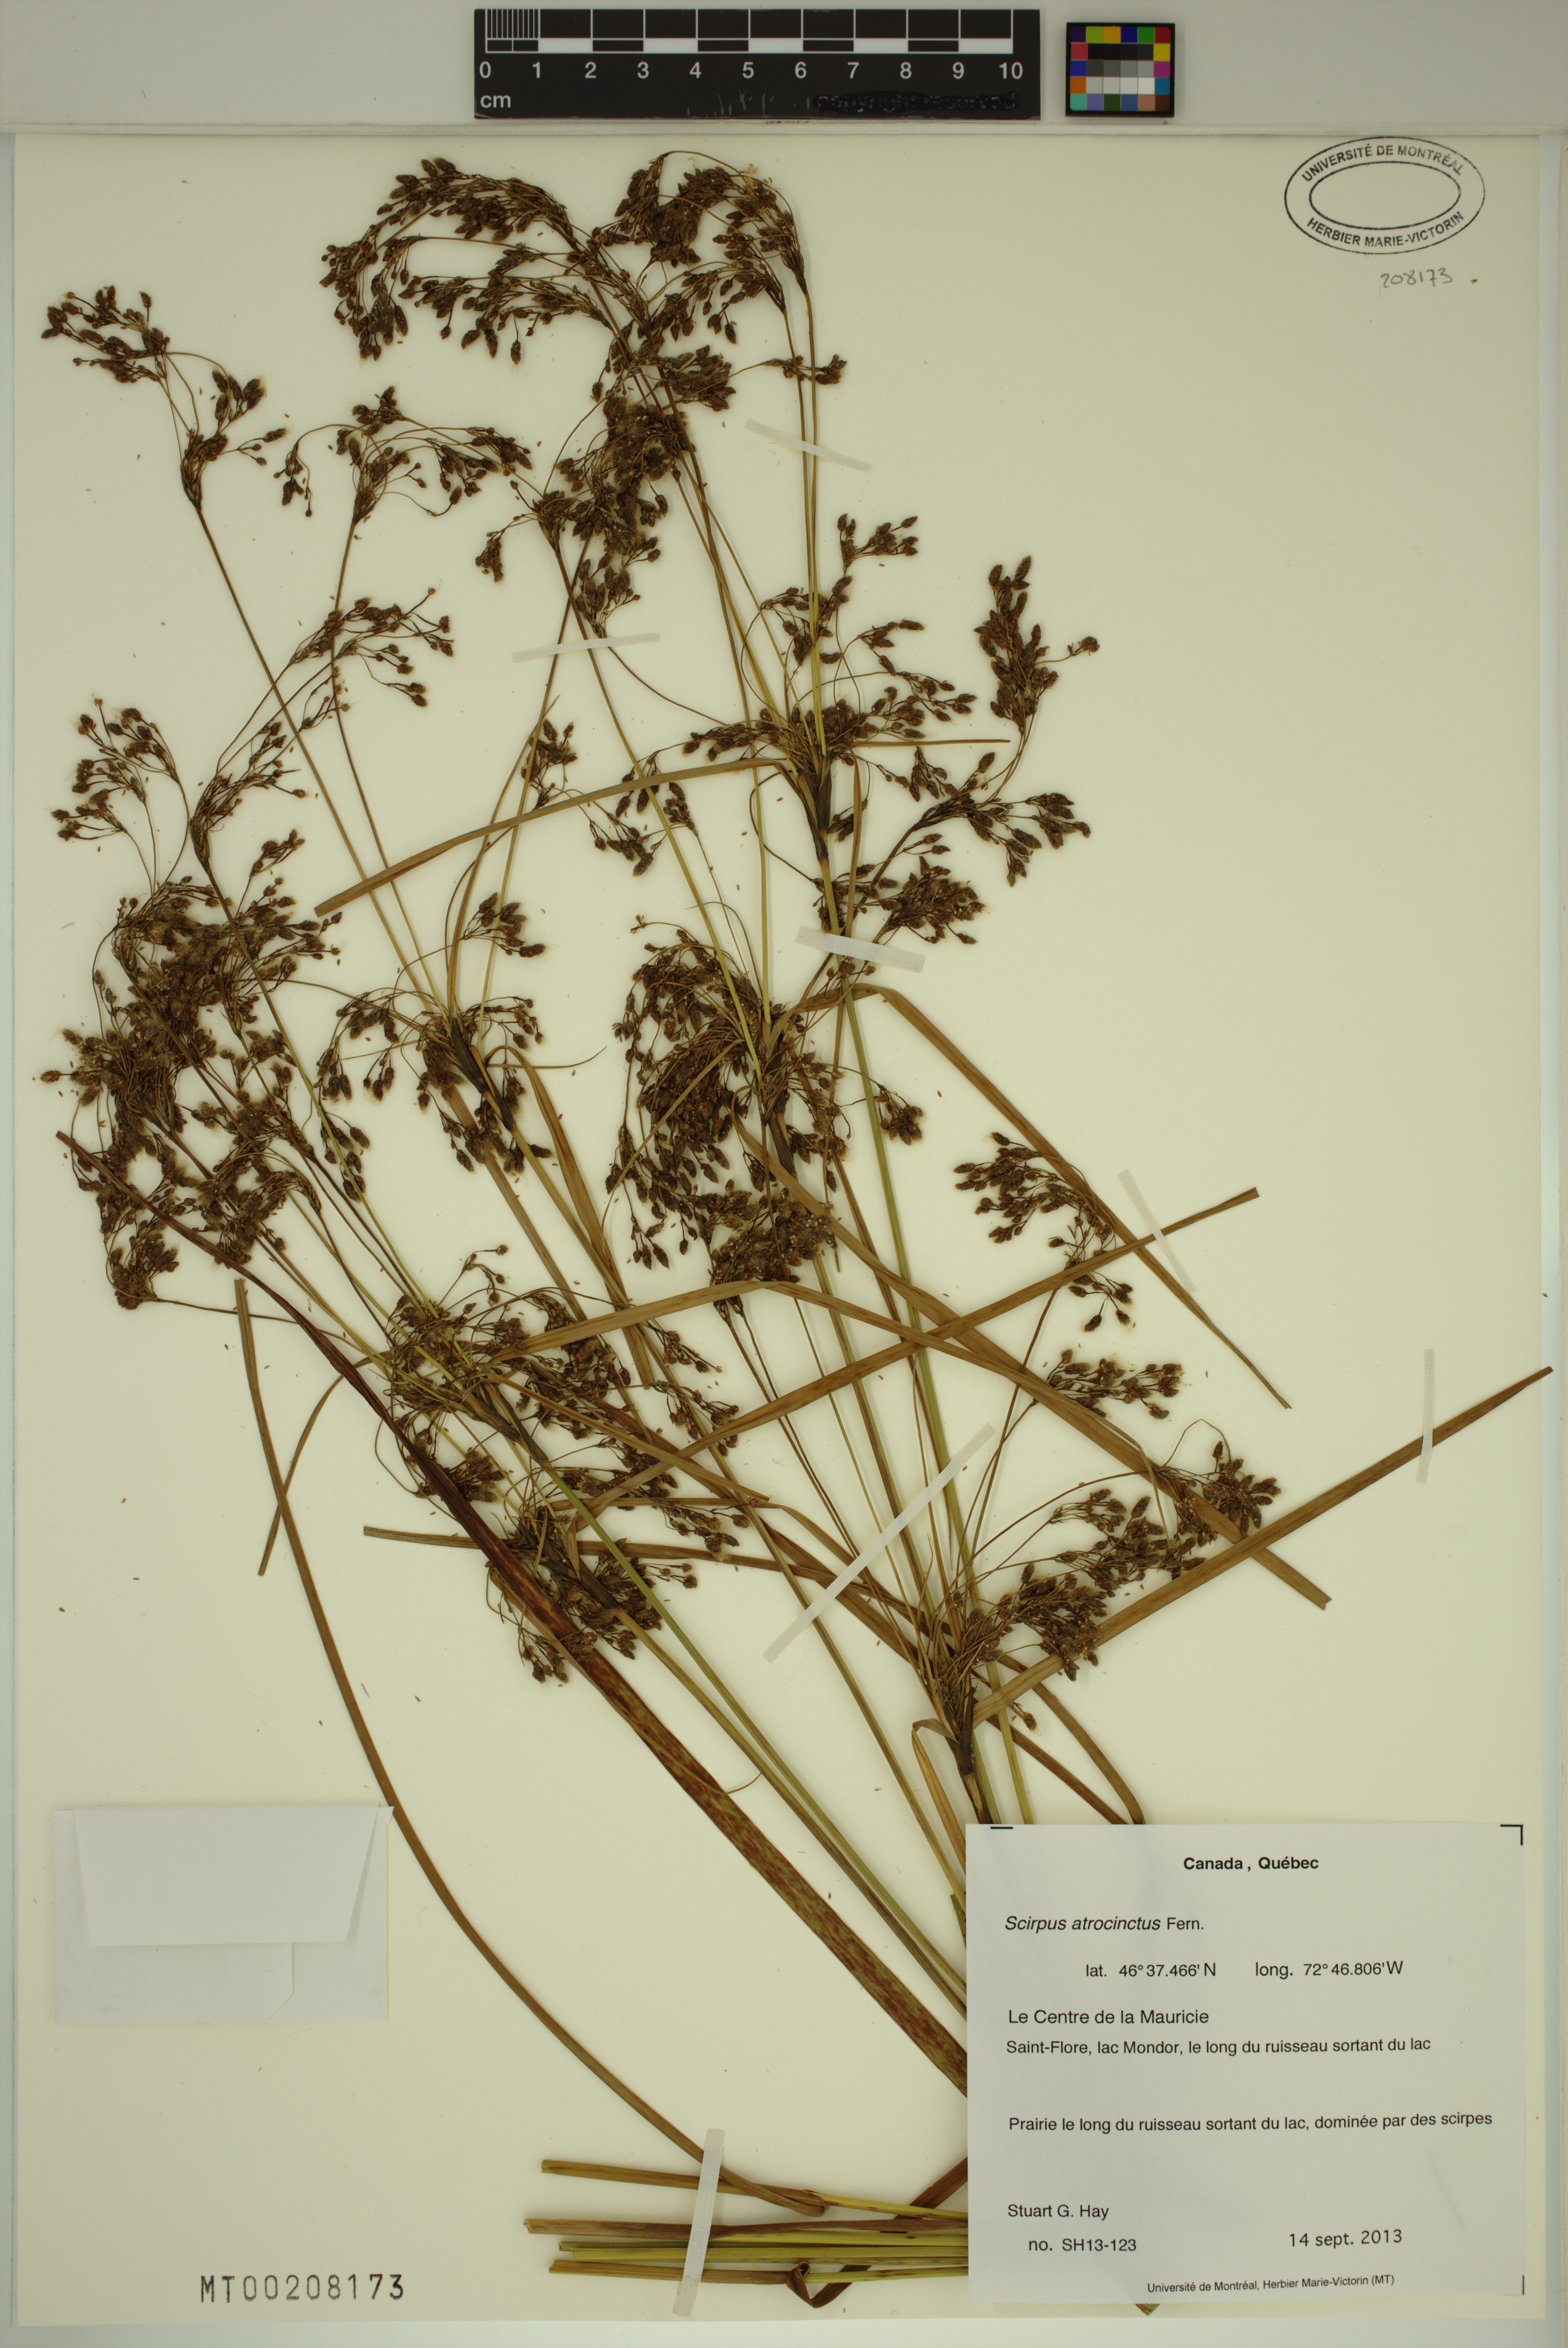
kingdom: Plantae
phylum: Tracheophyta
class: Liliopsida
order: Poales
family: Cyperaceae
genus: Scirpus
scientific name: Scirpus atrocinctus
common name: Black-girdled bulrush
